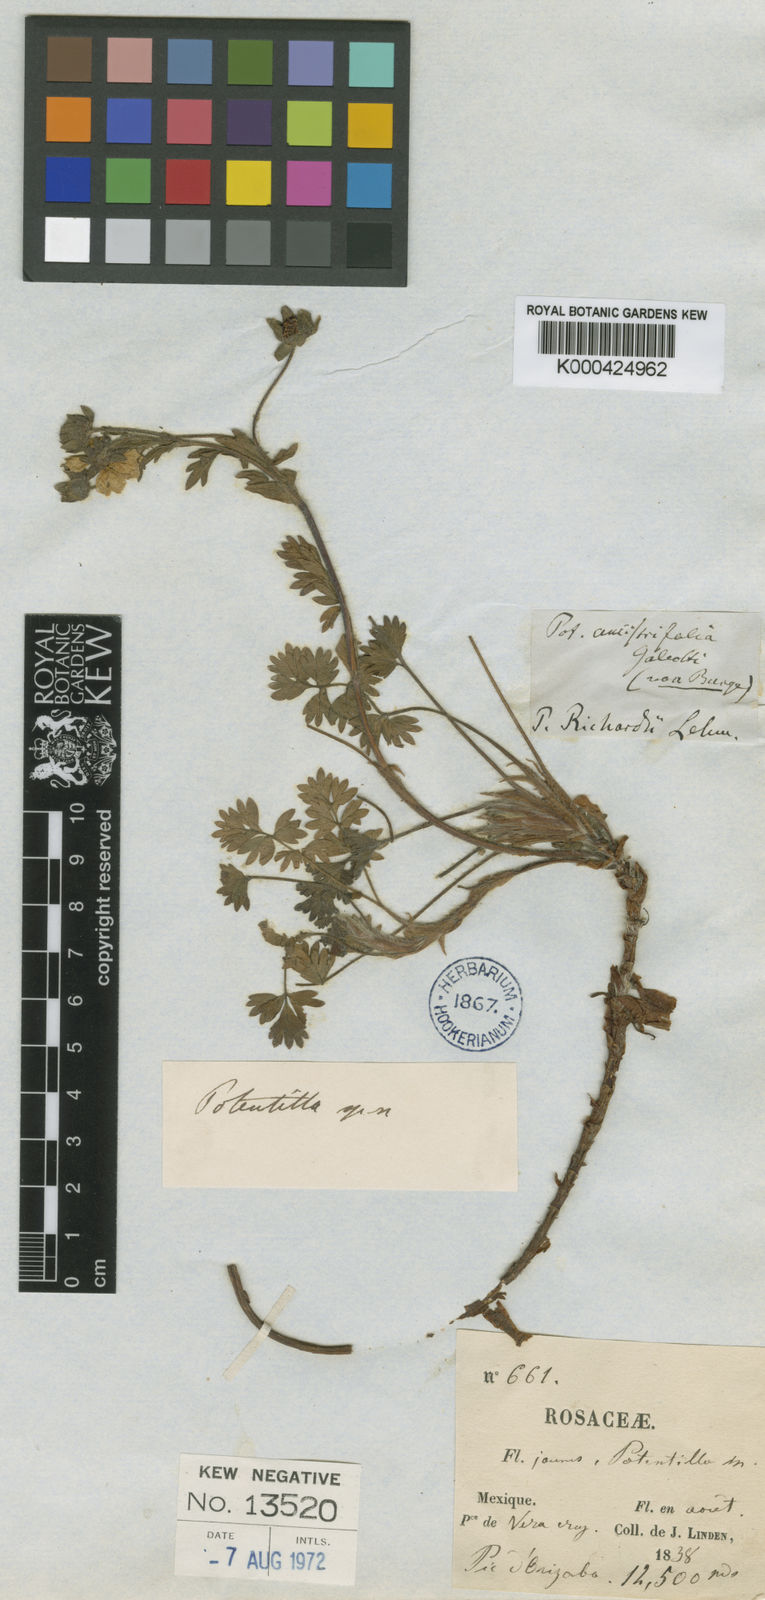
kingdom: Plantae
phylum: Tracheophyta
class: Magnoliopsida
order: Rosales
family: Rosaceae
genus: Potentilla
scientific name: Potentilla richardii
